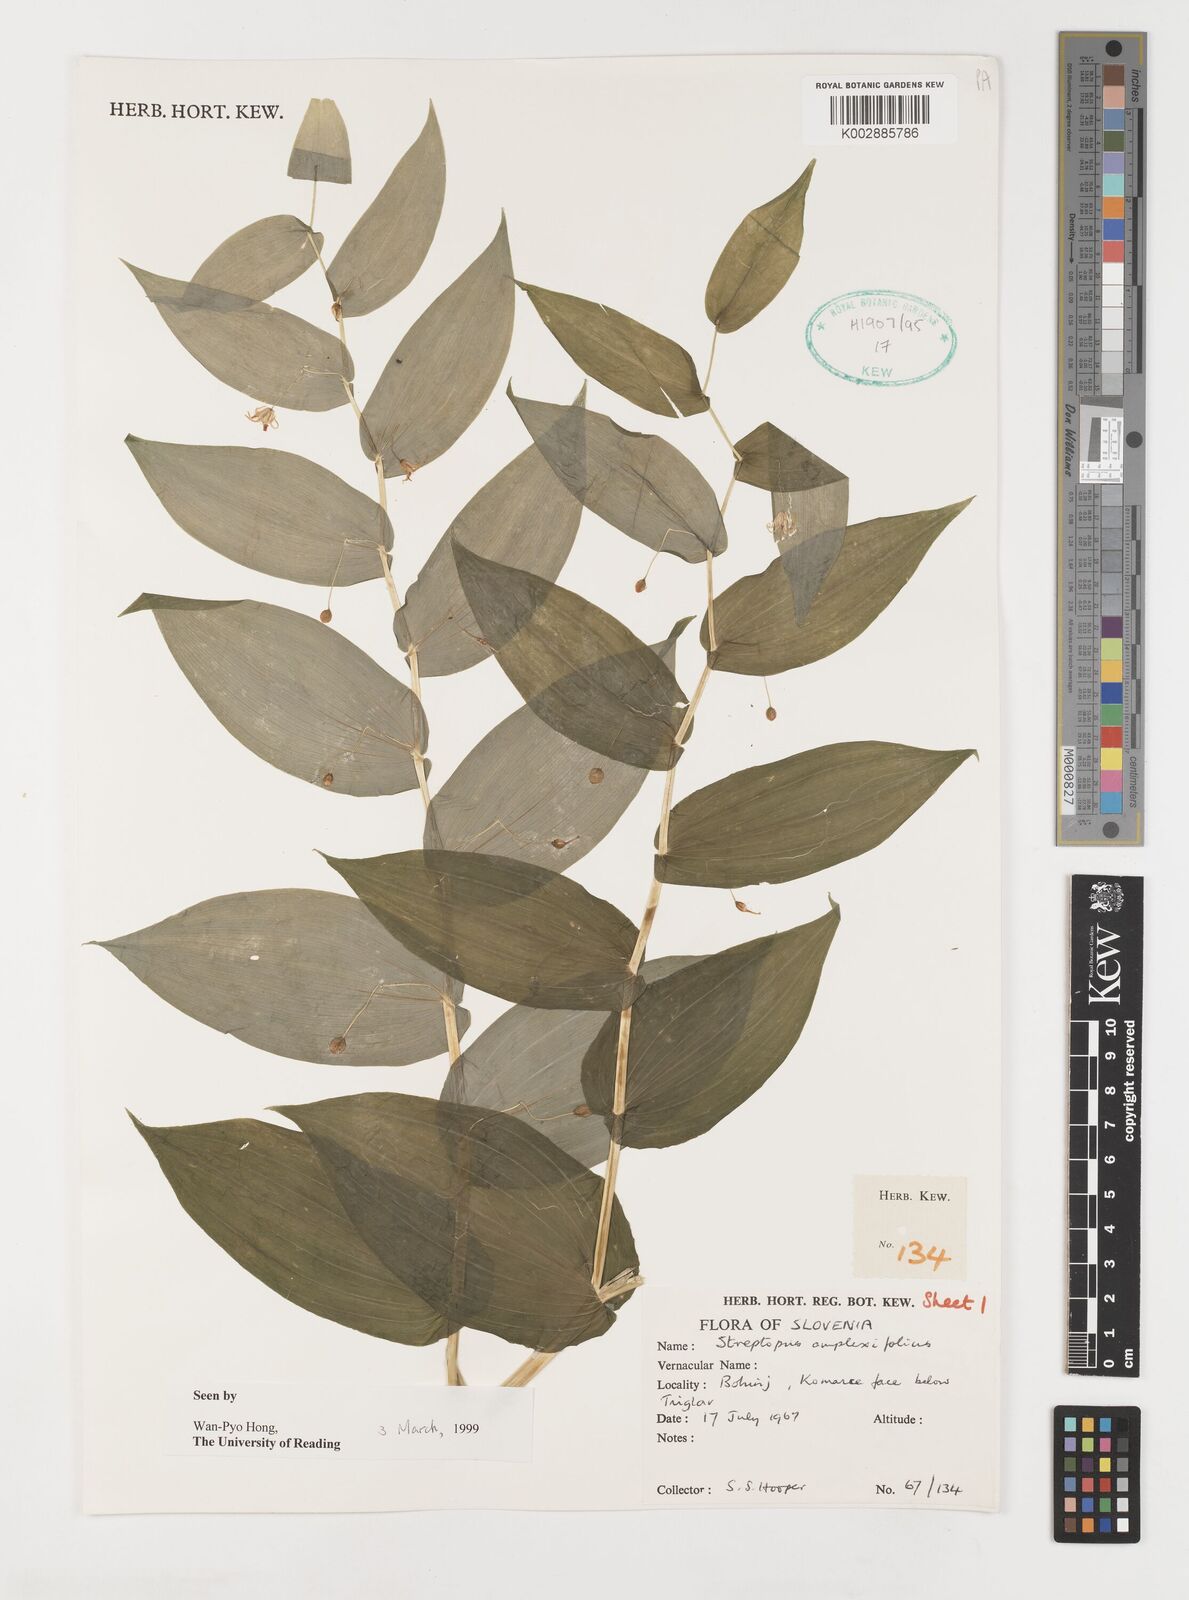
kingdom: Plantae
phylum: Tracheophyta
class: Liliopsida
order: Liliales
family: Liliaceae
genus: Streptopus
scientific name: Streptopus amplexifolius
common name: Clasp twisted stalk
